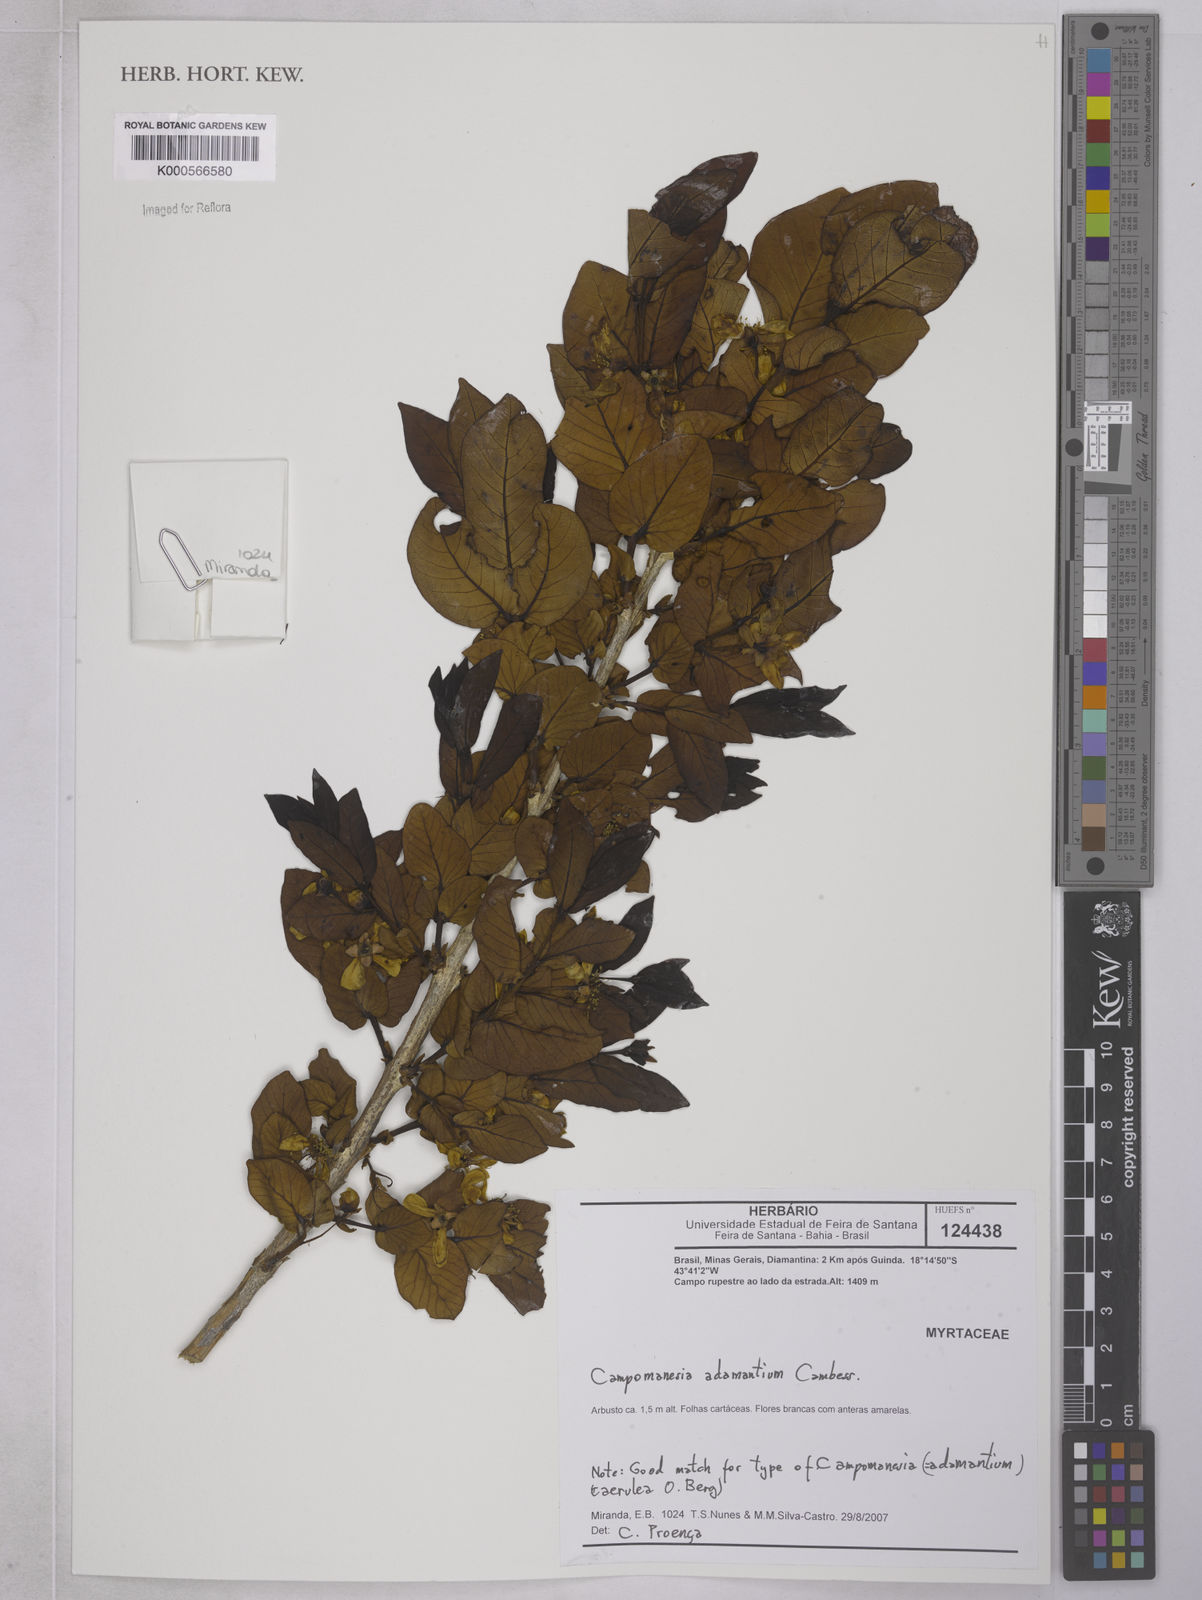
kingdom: Plantae
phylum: Tracheophyta
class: Magnoliopsida
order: Myrtales
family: Myrtaceae
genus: Campomanesia
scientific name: Campomanesia adamantium
